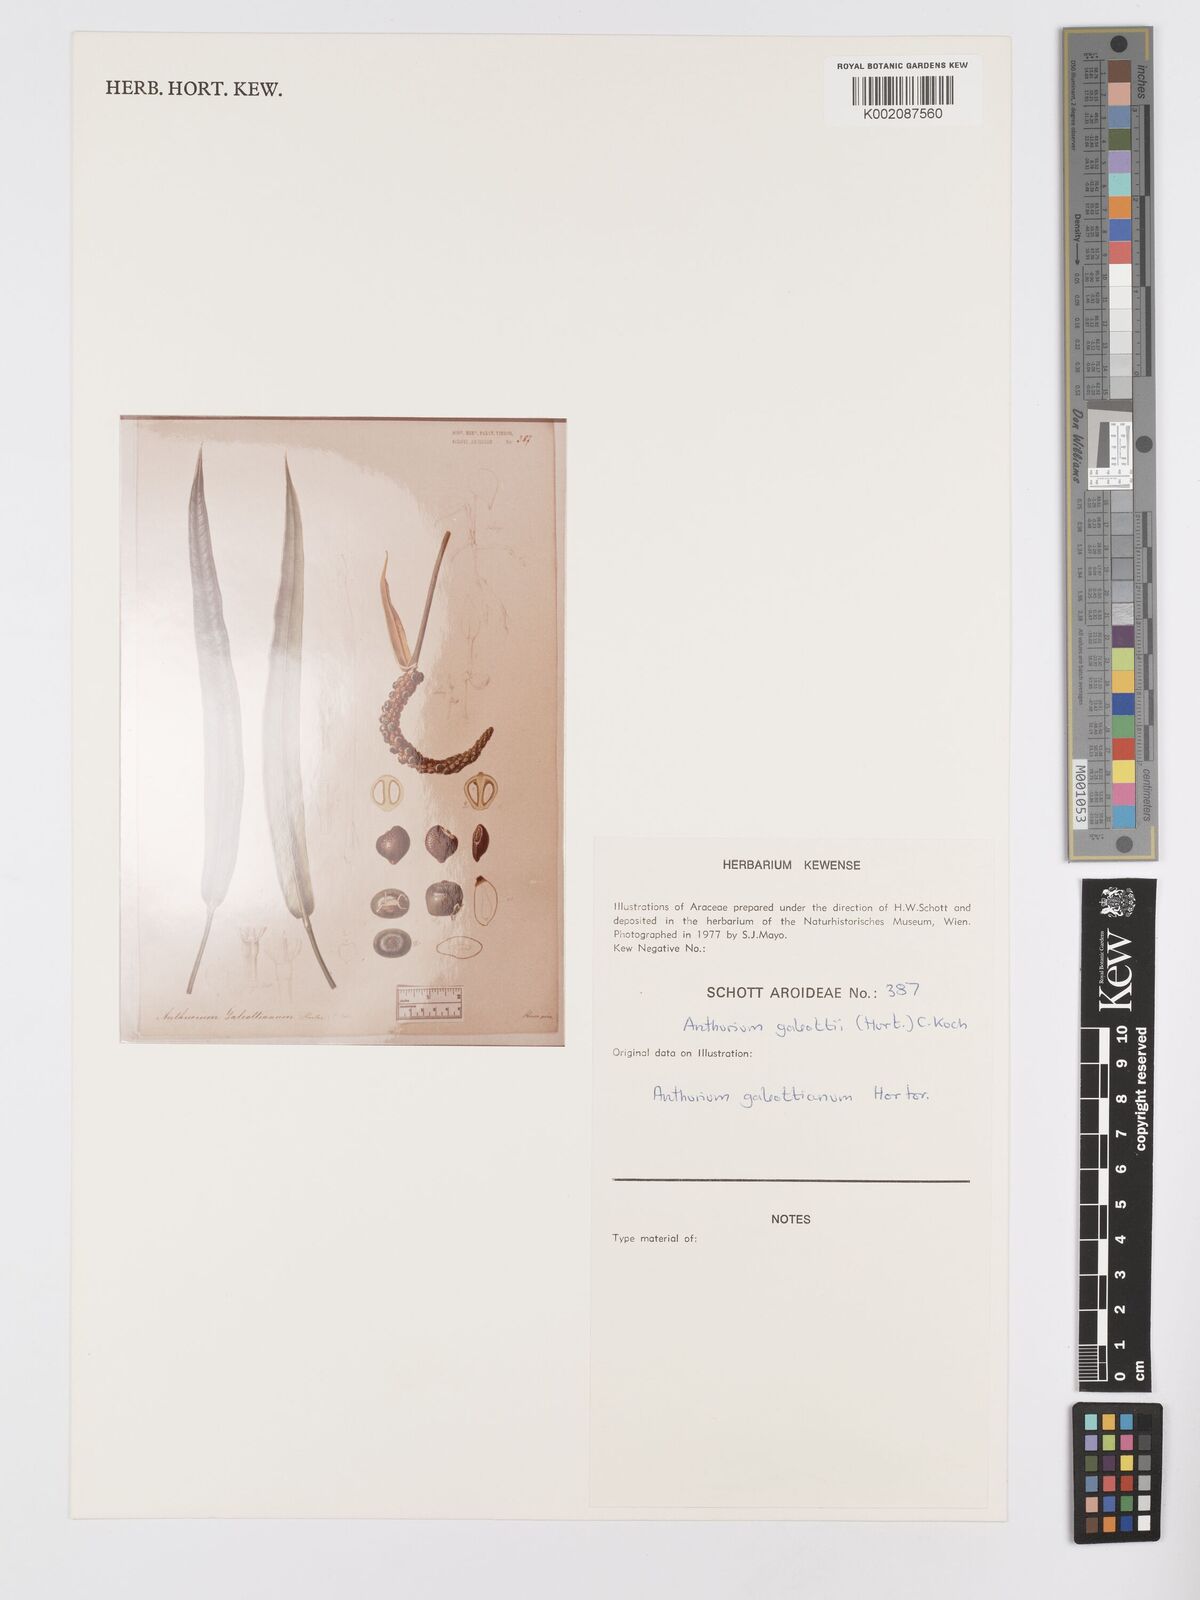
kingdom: Plantae
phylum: Tracheophyta
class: Liliopsida
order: Alismatales
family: Araceae
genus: Anthurium
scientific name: Anthurium galeottii
